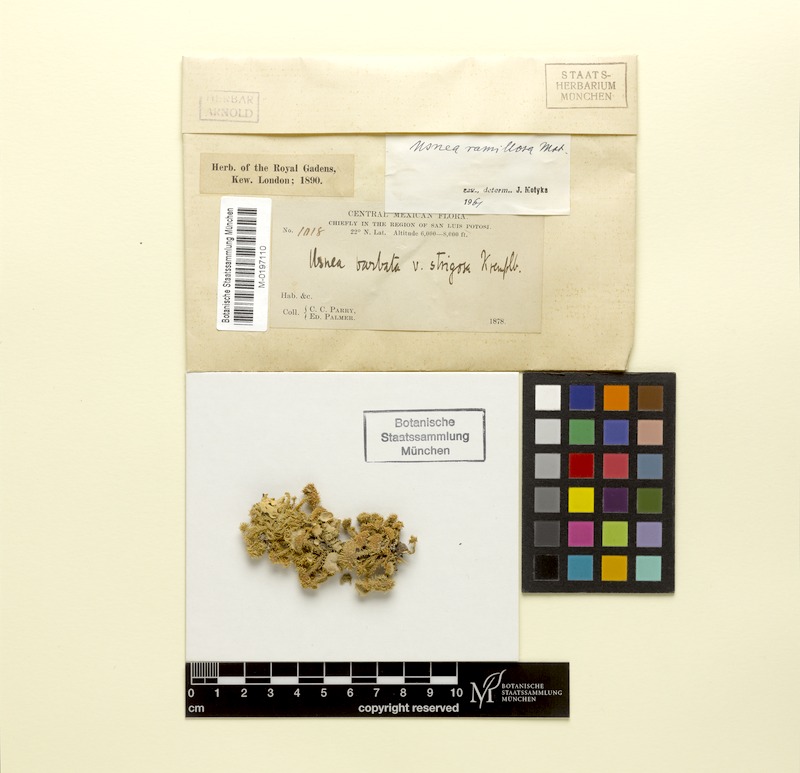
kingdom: Fungi
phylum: Ascomycota
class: Lecanoromycetes
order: Lecanorales
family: Parmeliaceae
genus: Usnea
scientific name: Usnea cirrosa
